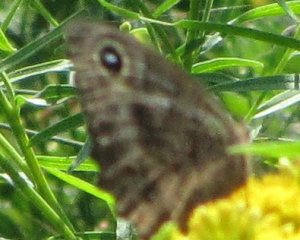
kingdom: Animalia
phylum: Arthropoda
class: Insecta
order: Lepidoptera
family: Nymphalidae
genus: Cercyonis
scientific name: Cercyonis pegala
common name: Common Wood-Nymph
